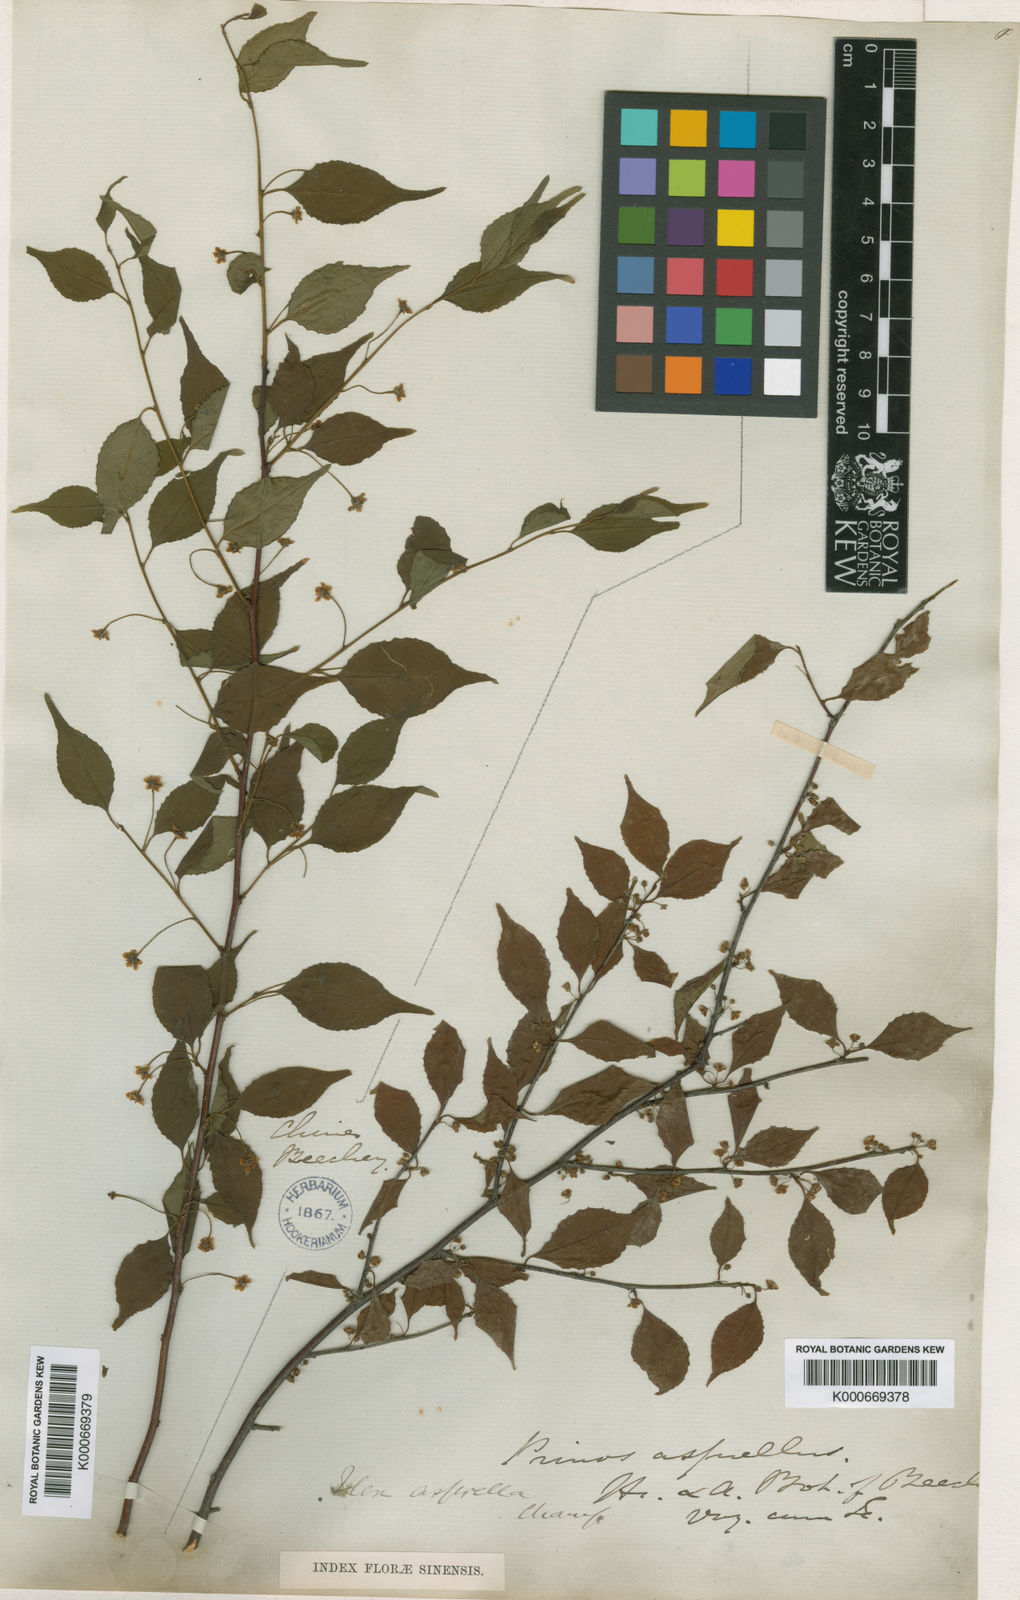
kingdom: Plantae
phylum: Tracheophyta
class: Magnoliopsida
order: Aquifoliales
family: Aquifoliaceae
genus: Ilex
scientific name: Ilex asprella
